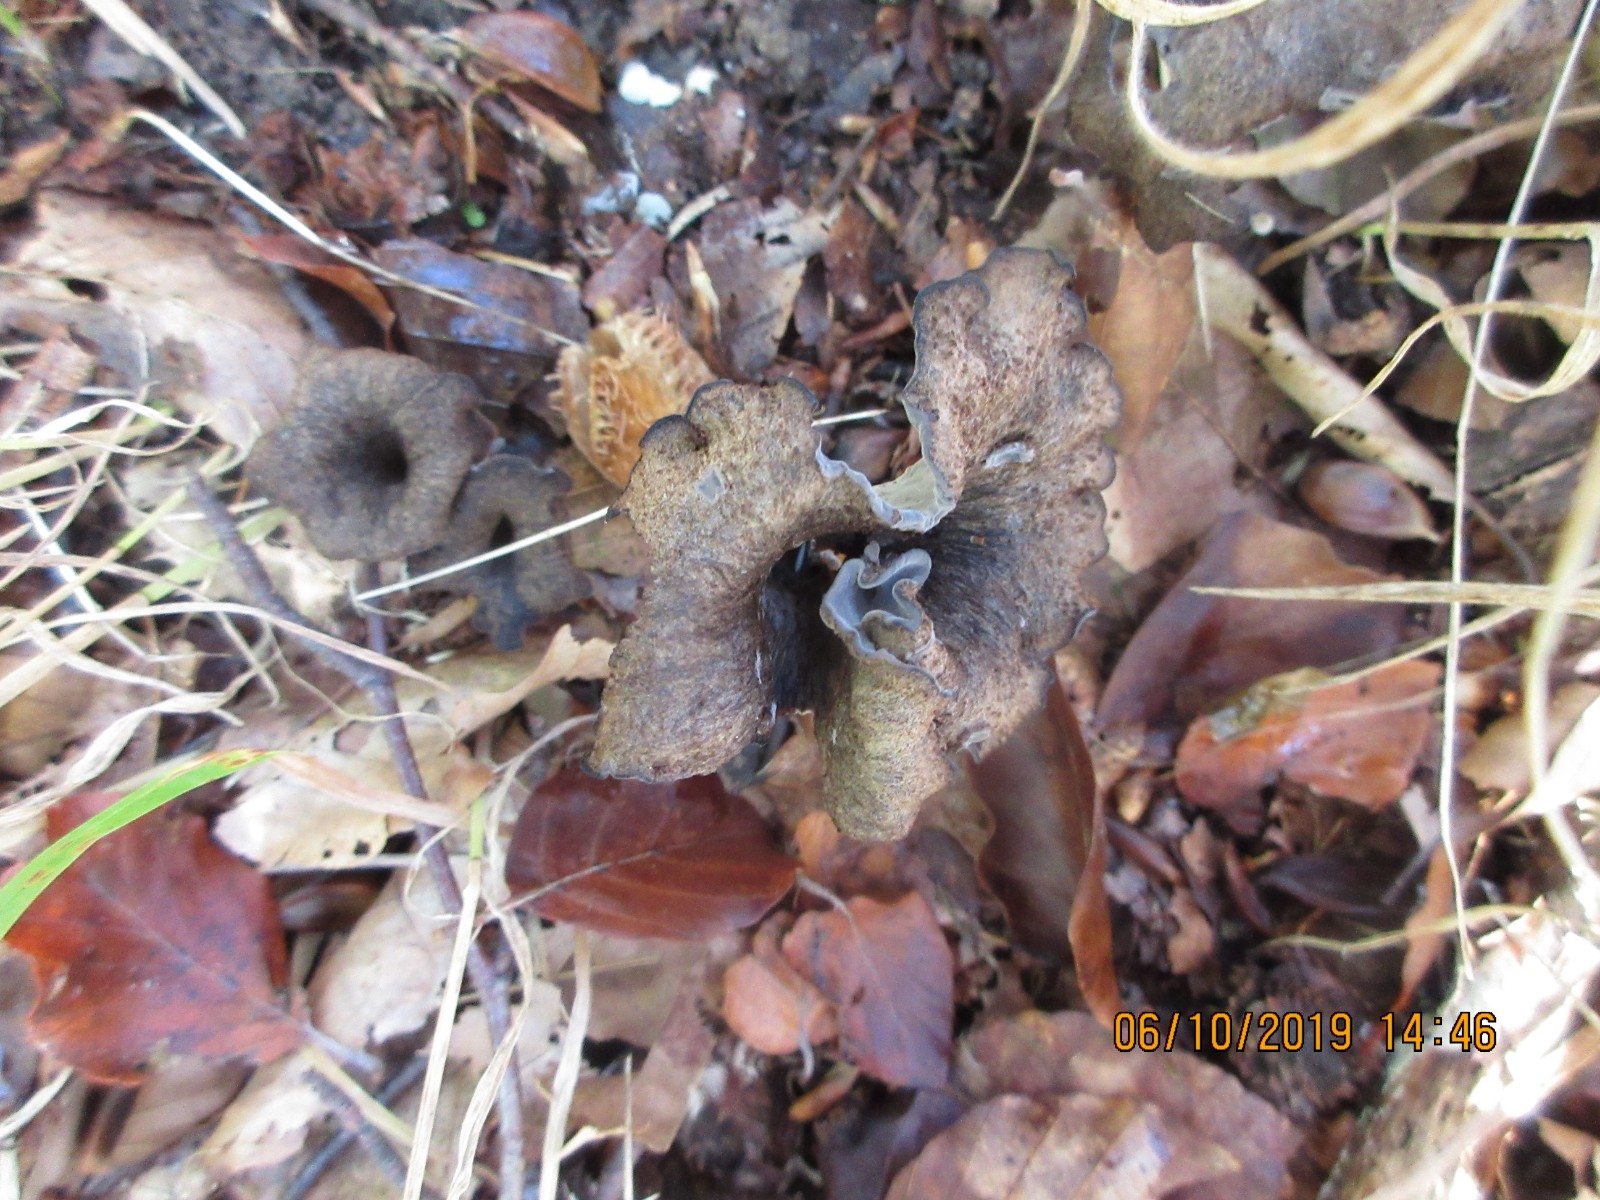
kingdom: Fungi
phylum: Basidiomycota
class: Agaricomycetes
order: Cantharellales
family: Hydnaceae
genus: Craterellus
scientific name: Craterellus cornucopioides
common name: trompetsvamp
